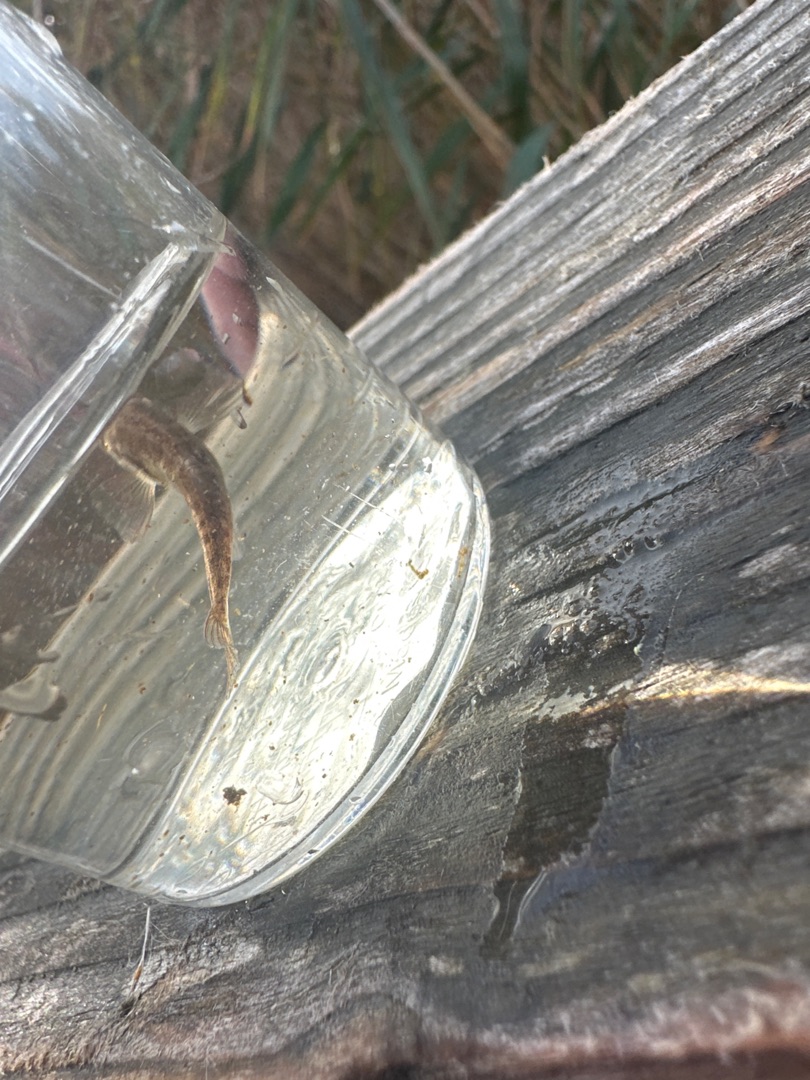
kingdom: Animalia
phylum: Chordata
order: Gasterosteiformes
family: Gasterosteidae
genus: Pungitius
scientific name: Pungitius pungitius
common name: Nipigget hundestejle
